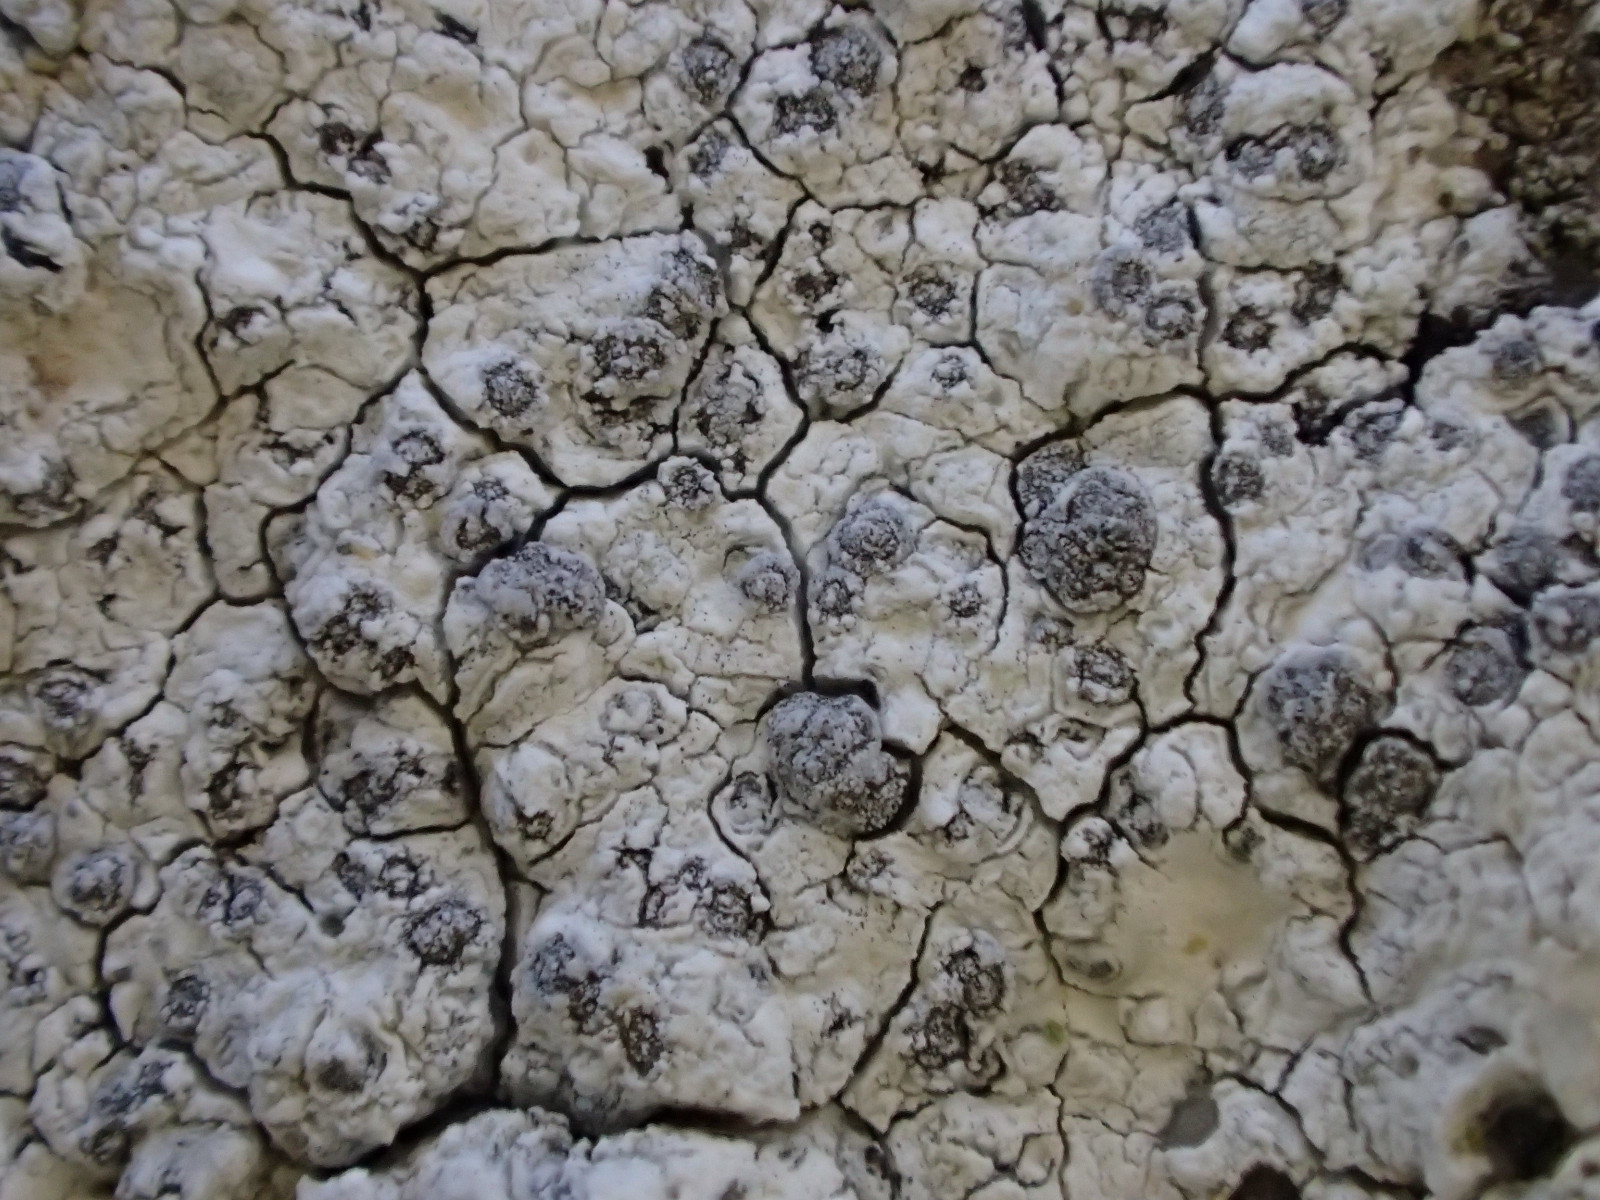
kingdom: Fungi
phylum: Ascomycota
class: Lecanoromycetes
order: Caliciales
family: Caliciaceae
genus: Diplotomma
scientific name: Diplotomma alboatrum
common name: sorthvid sortskivelav
